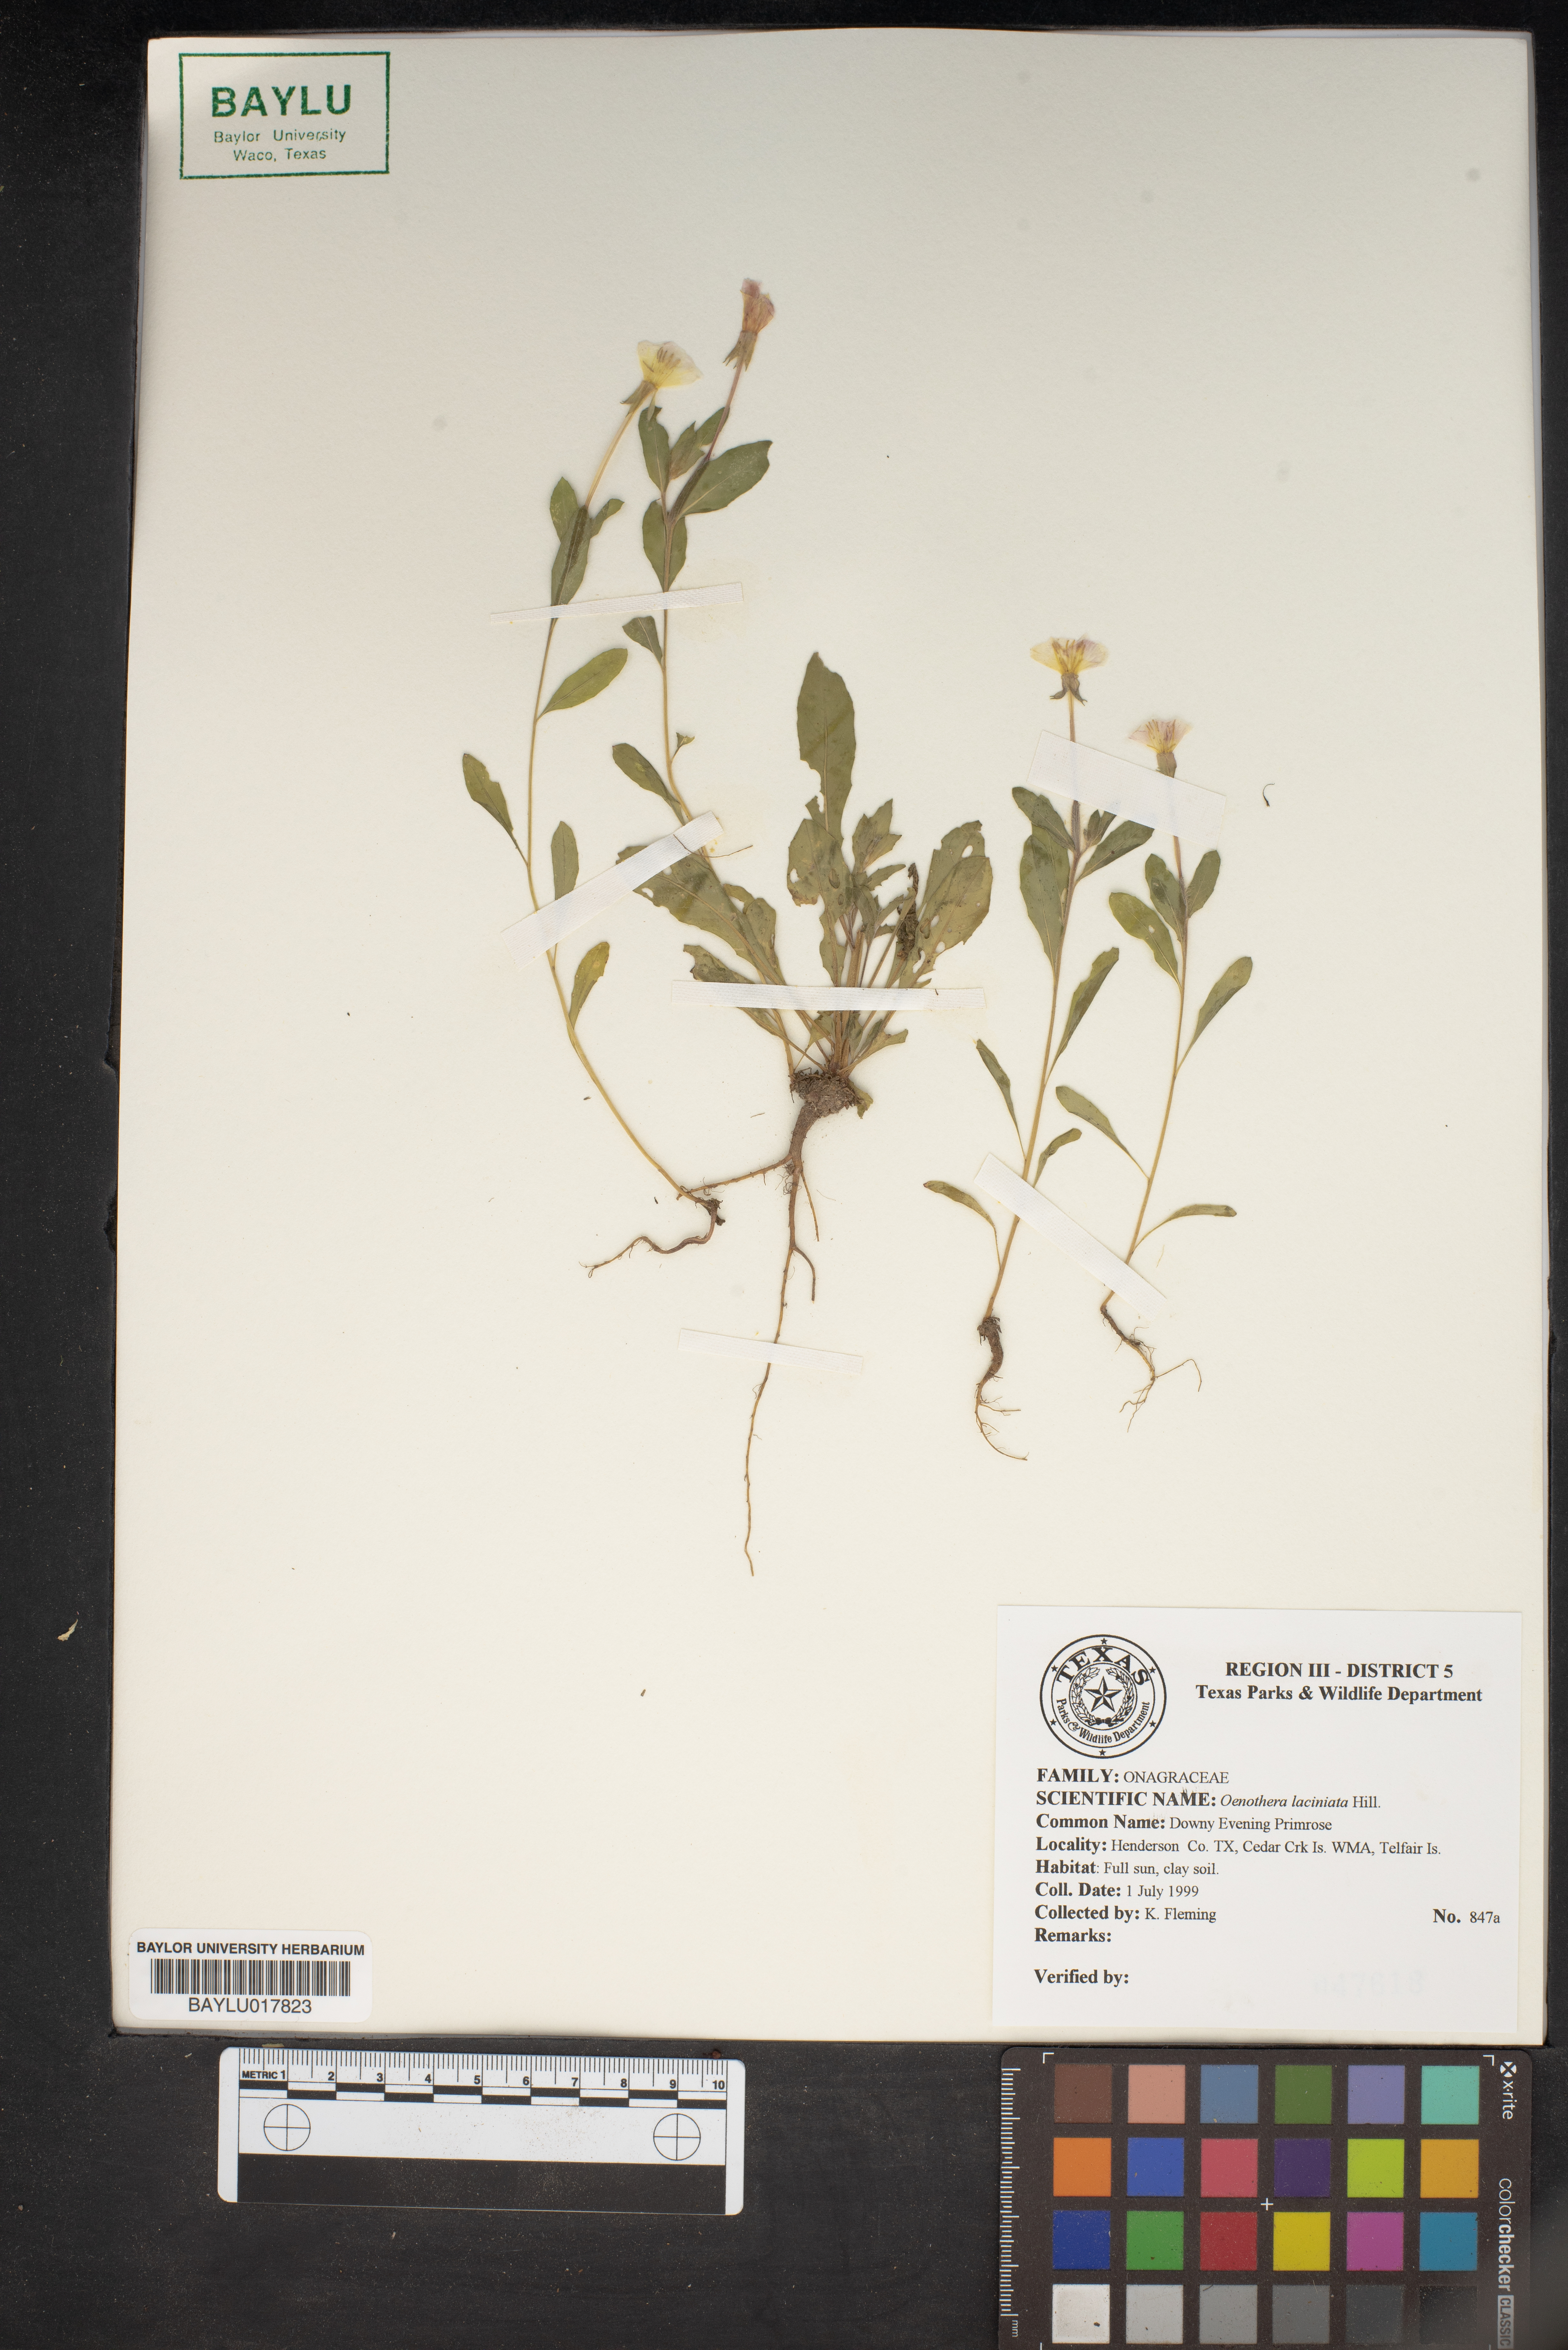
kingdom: Plantae
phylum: Tracheophyta
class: Magnoliopsida
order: Myrtales
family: Onagraceae
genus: Oenothera
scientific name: Oenothera laciniata
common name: Cut-leaved evening-primrose
